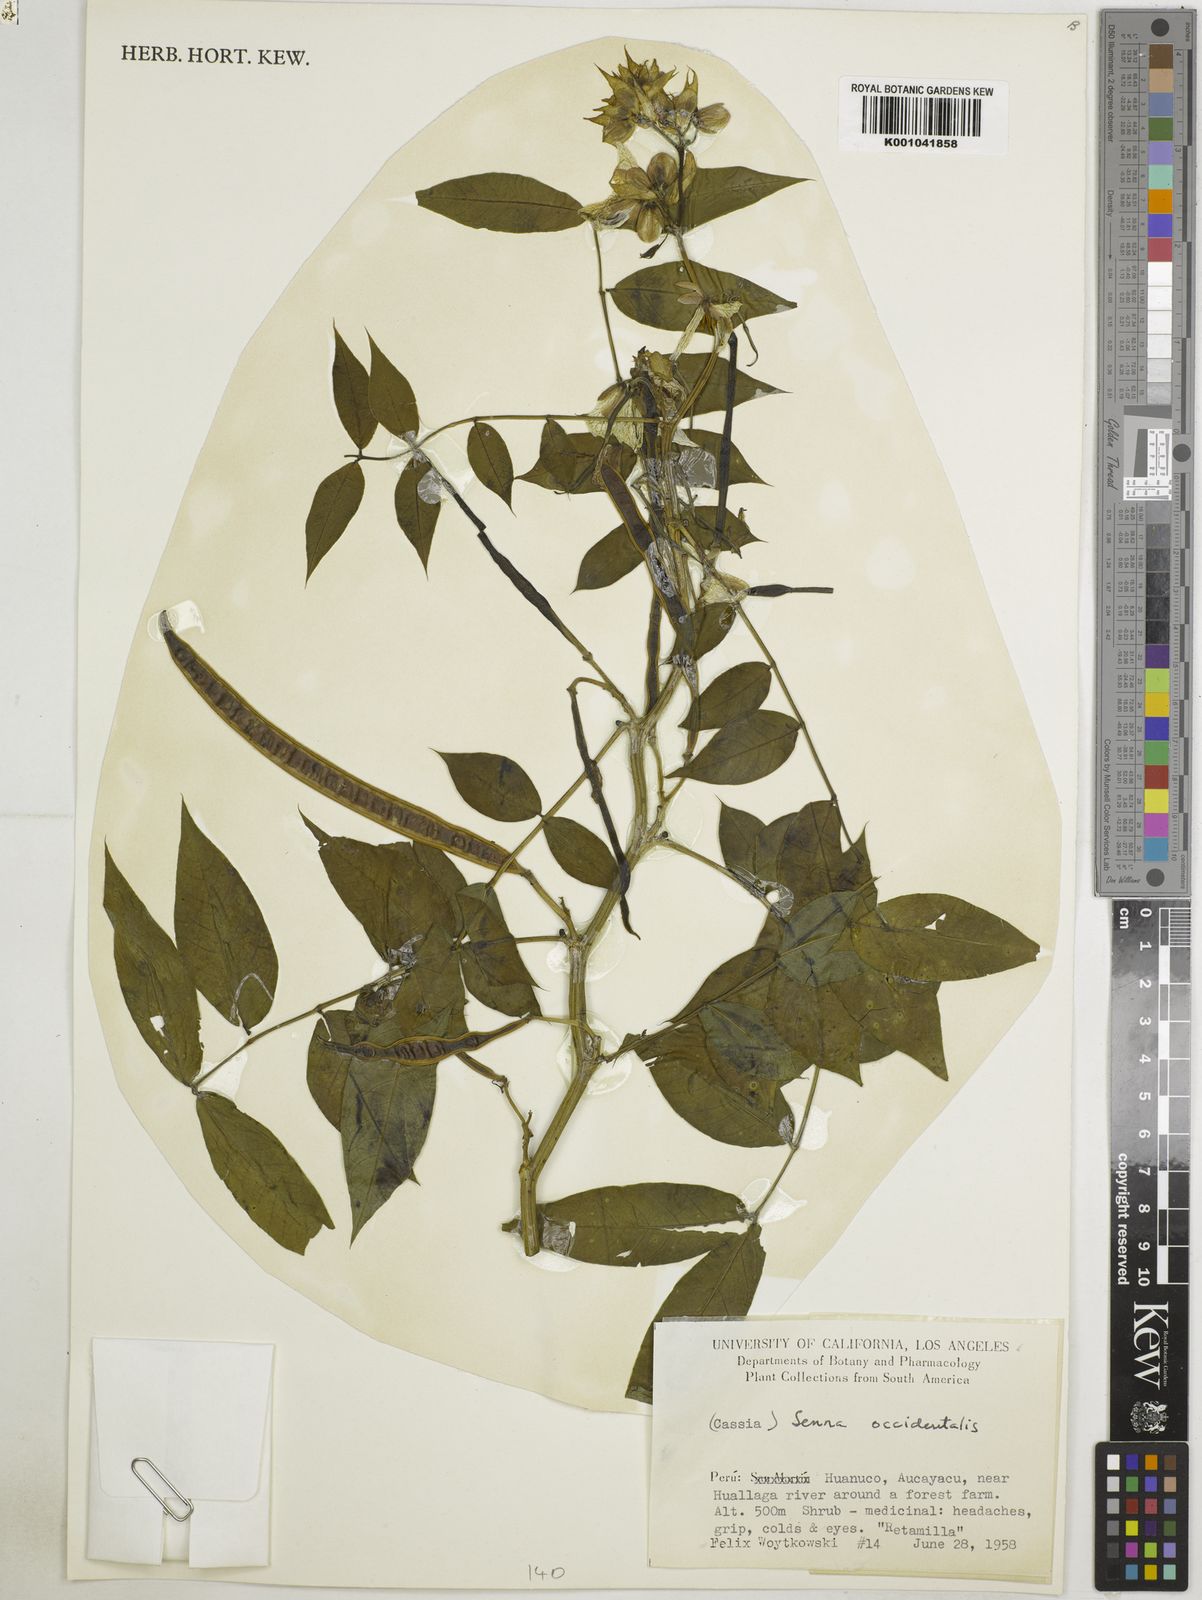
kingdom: Plantae
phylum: Tracheophyta
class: Magnoliopsida
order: Fabales
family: Fabaceae
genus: Senna
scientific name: Senna occidentalis
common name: Septicweed
